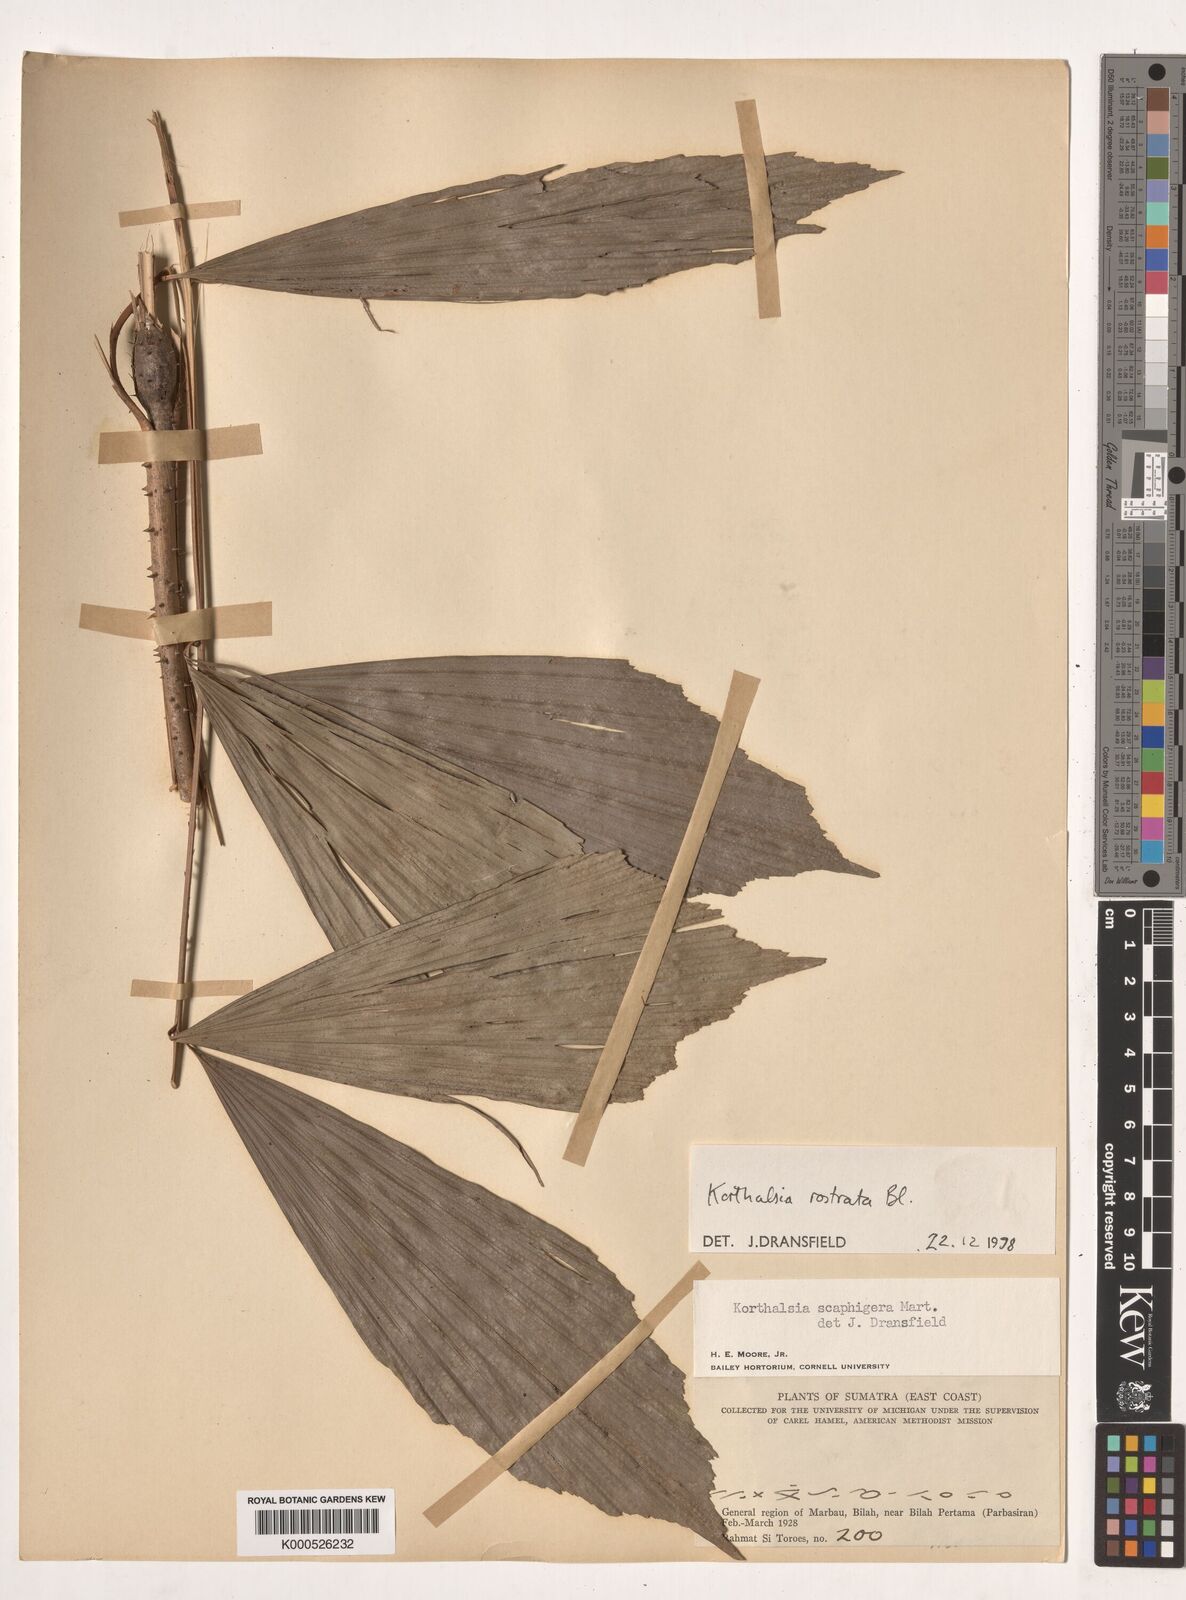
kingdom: Plantae
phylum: Tracheophyta
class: Liliopsida
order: Arecales
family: Arecaceae
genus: Korthalsia
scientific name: Korthalsia rostrata
